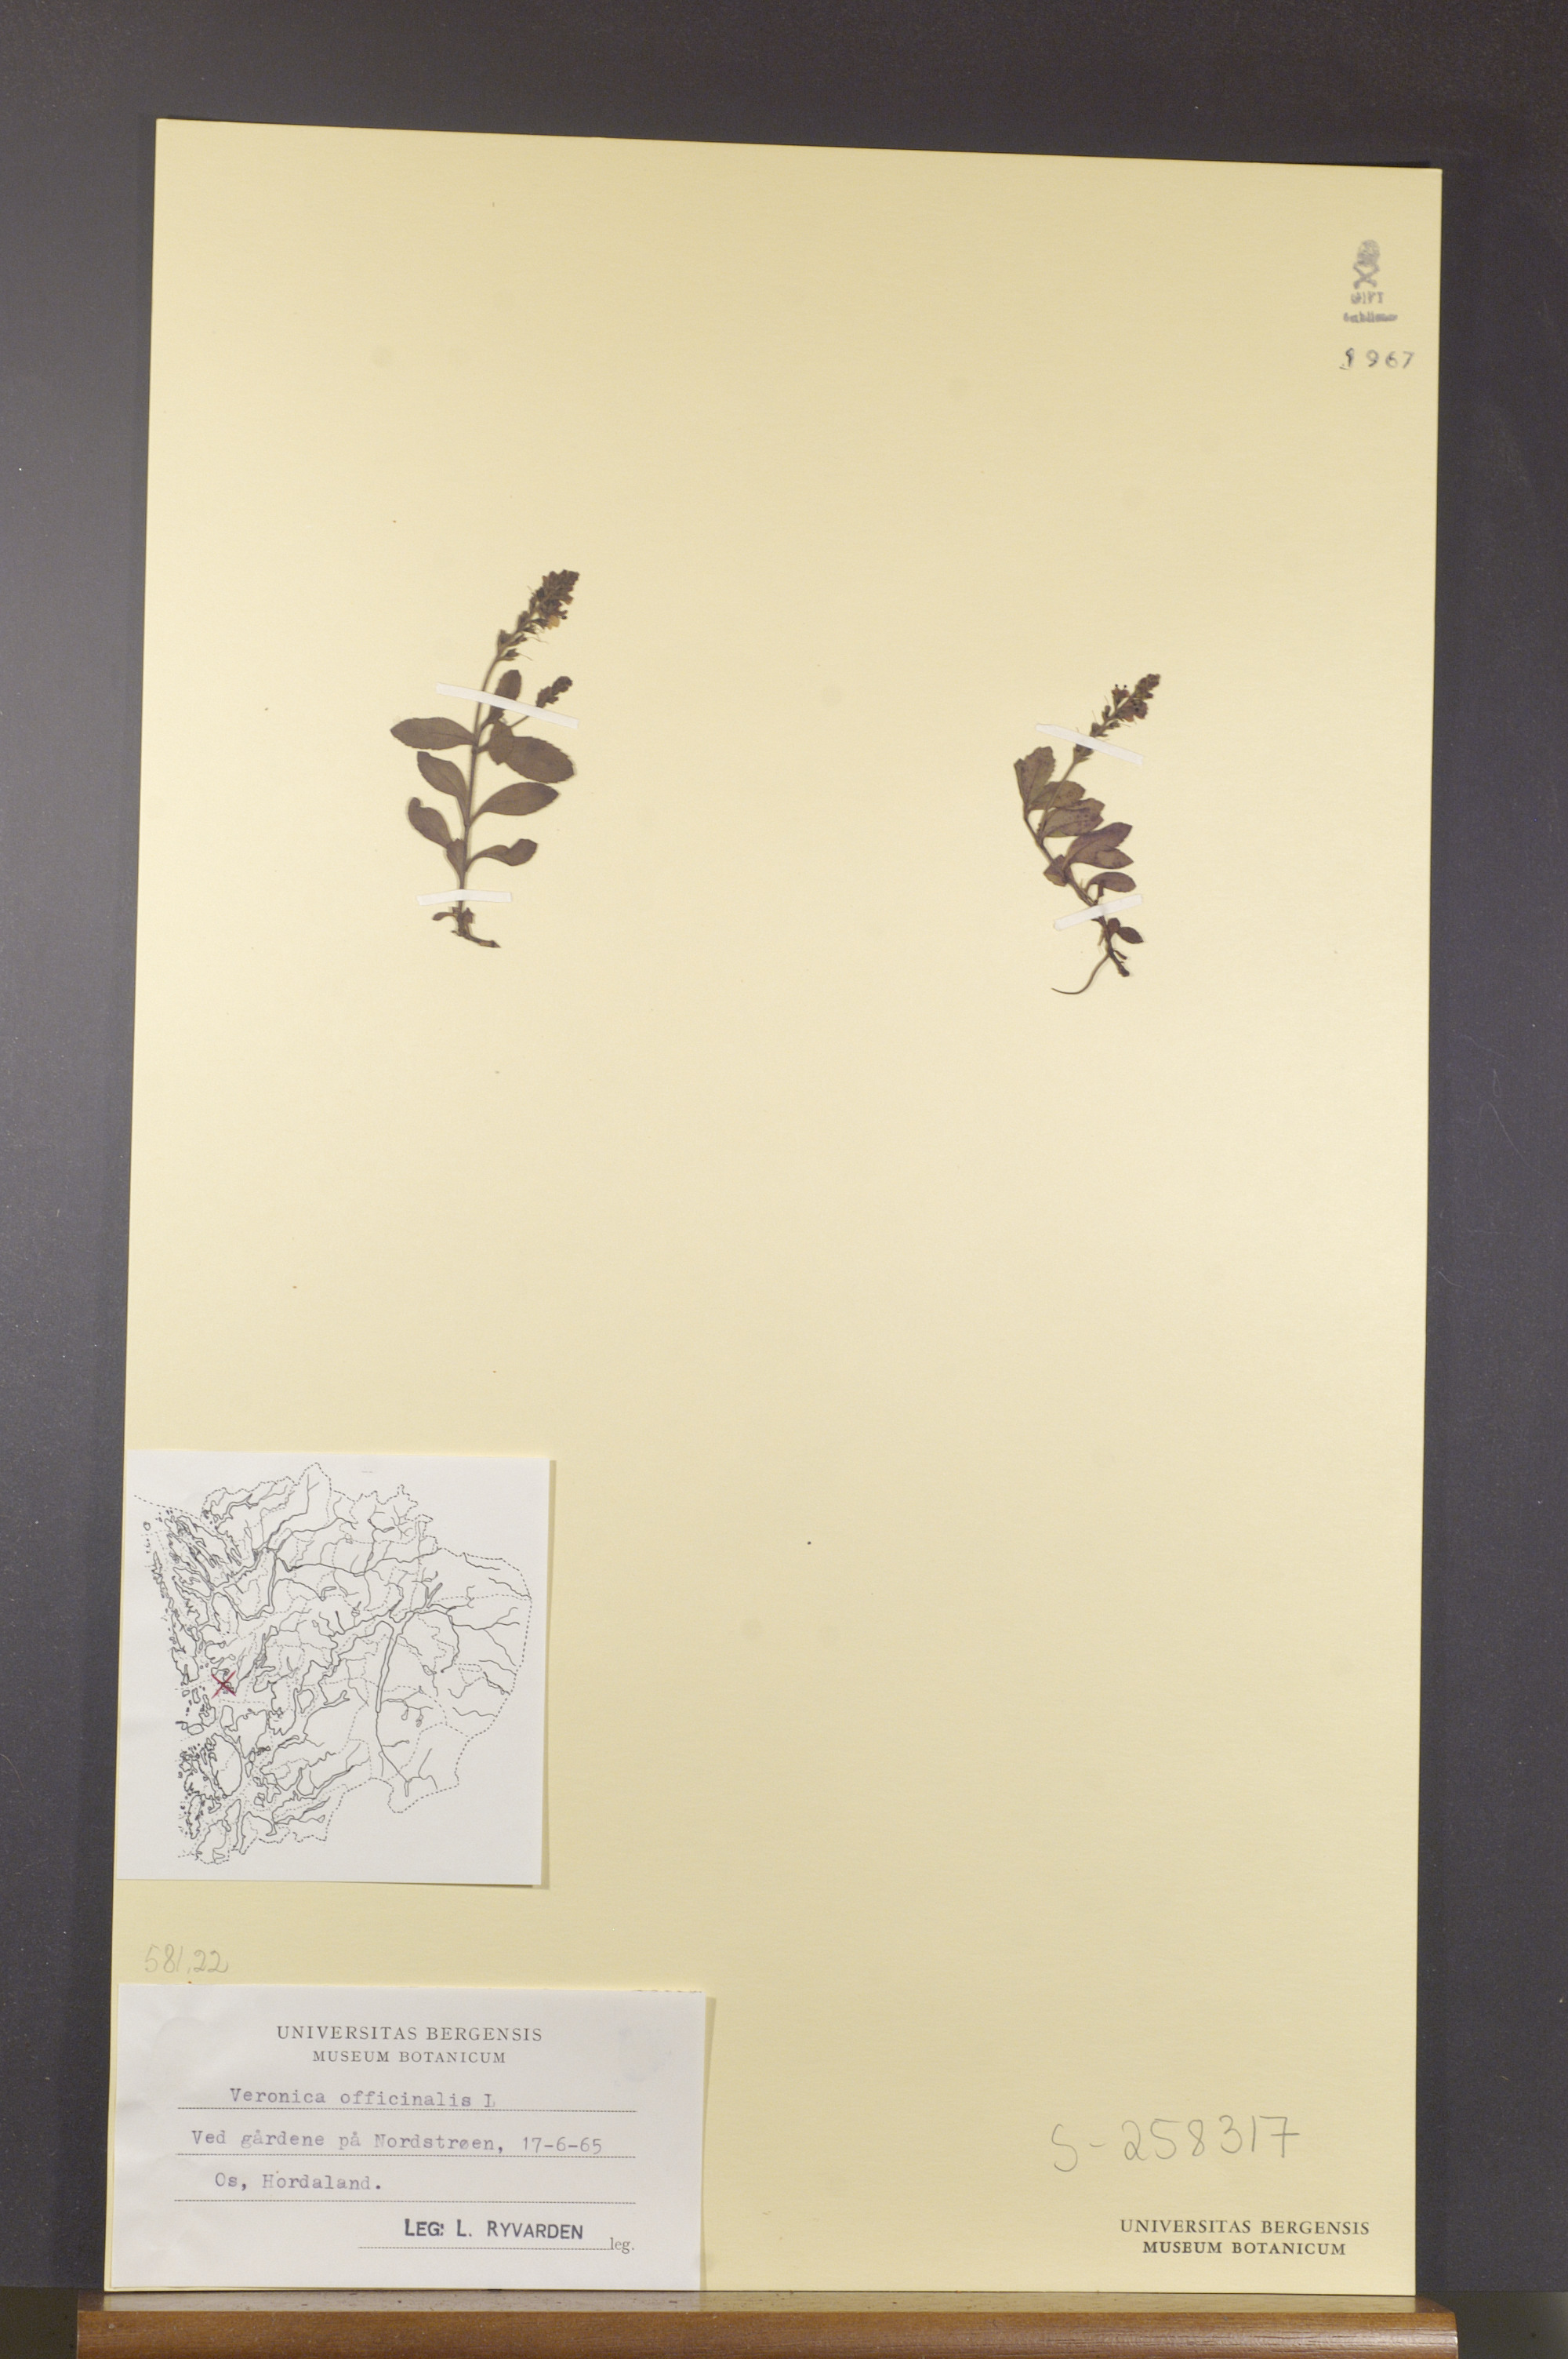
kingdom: Plantae
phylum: Tracheophyta
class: Magnoliopsida
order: Lamiales
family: Plantaginaceae
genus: Veronica
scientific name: Veronica officinalis
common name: Common speedwell
